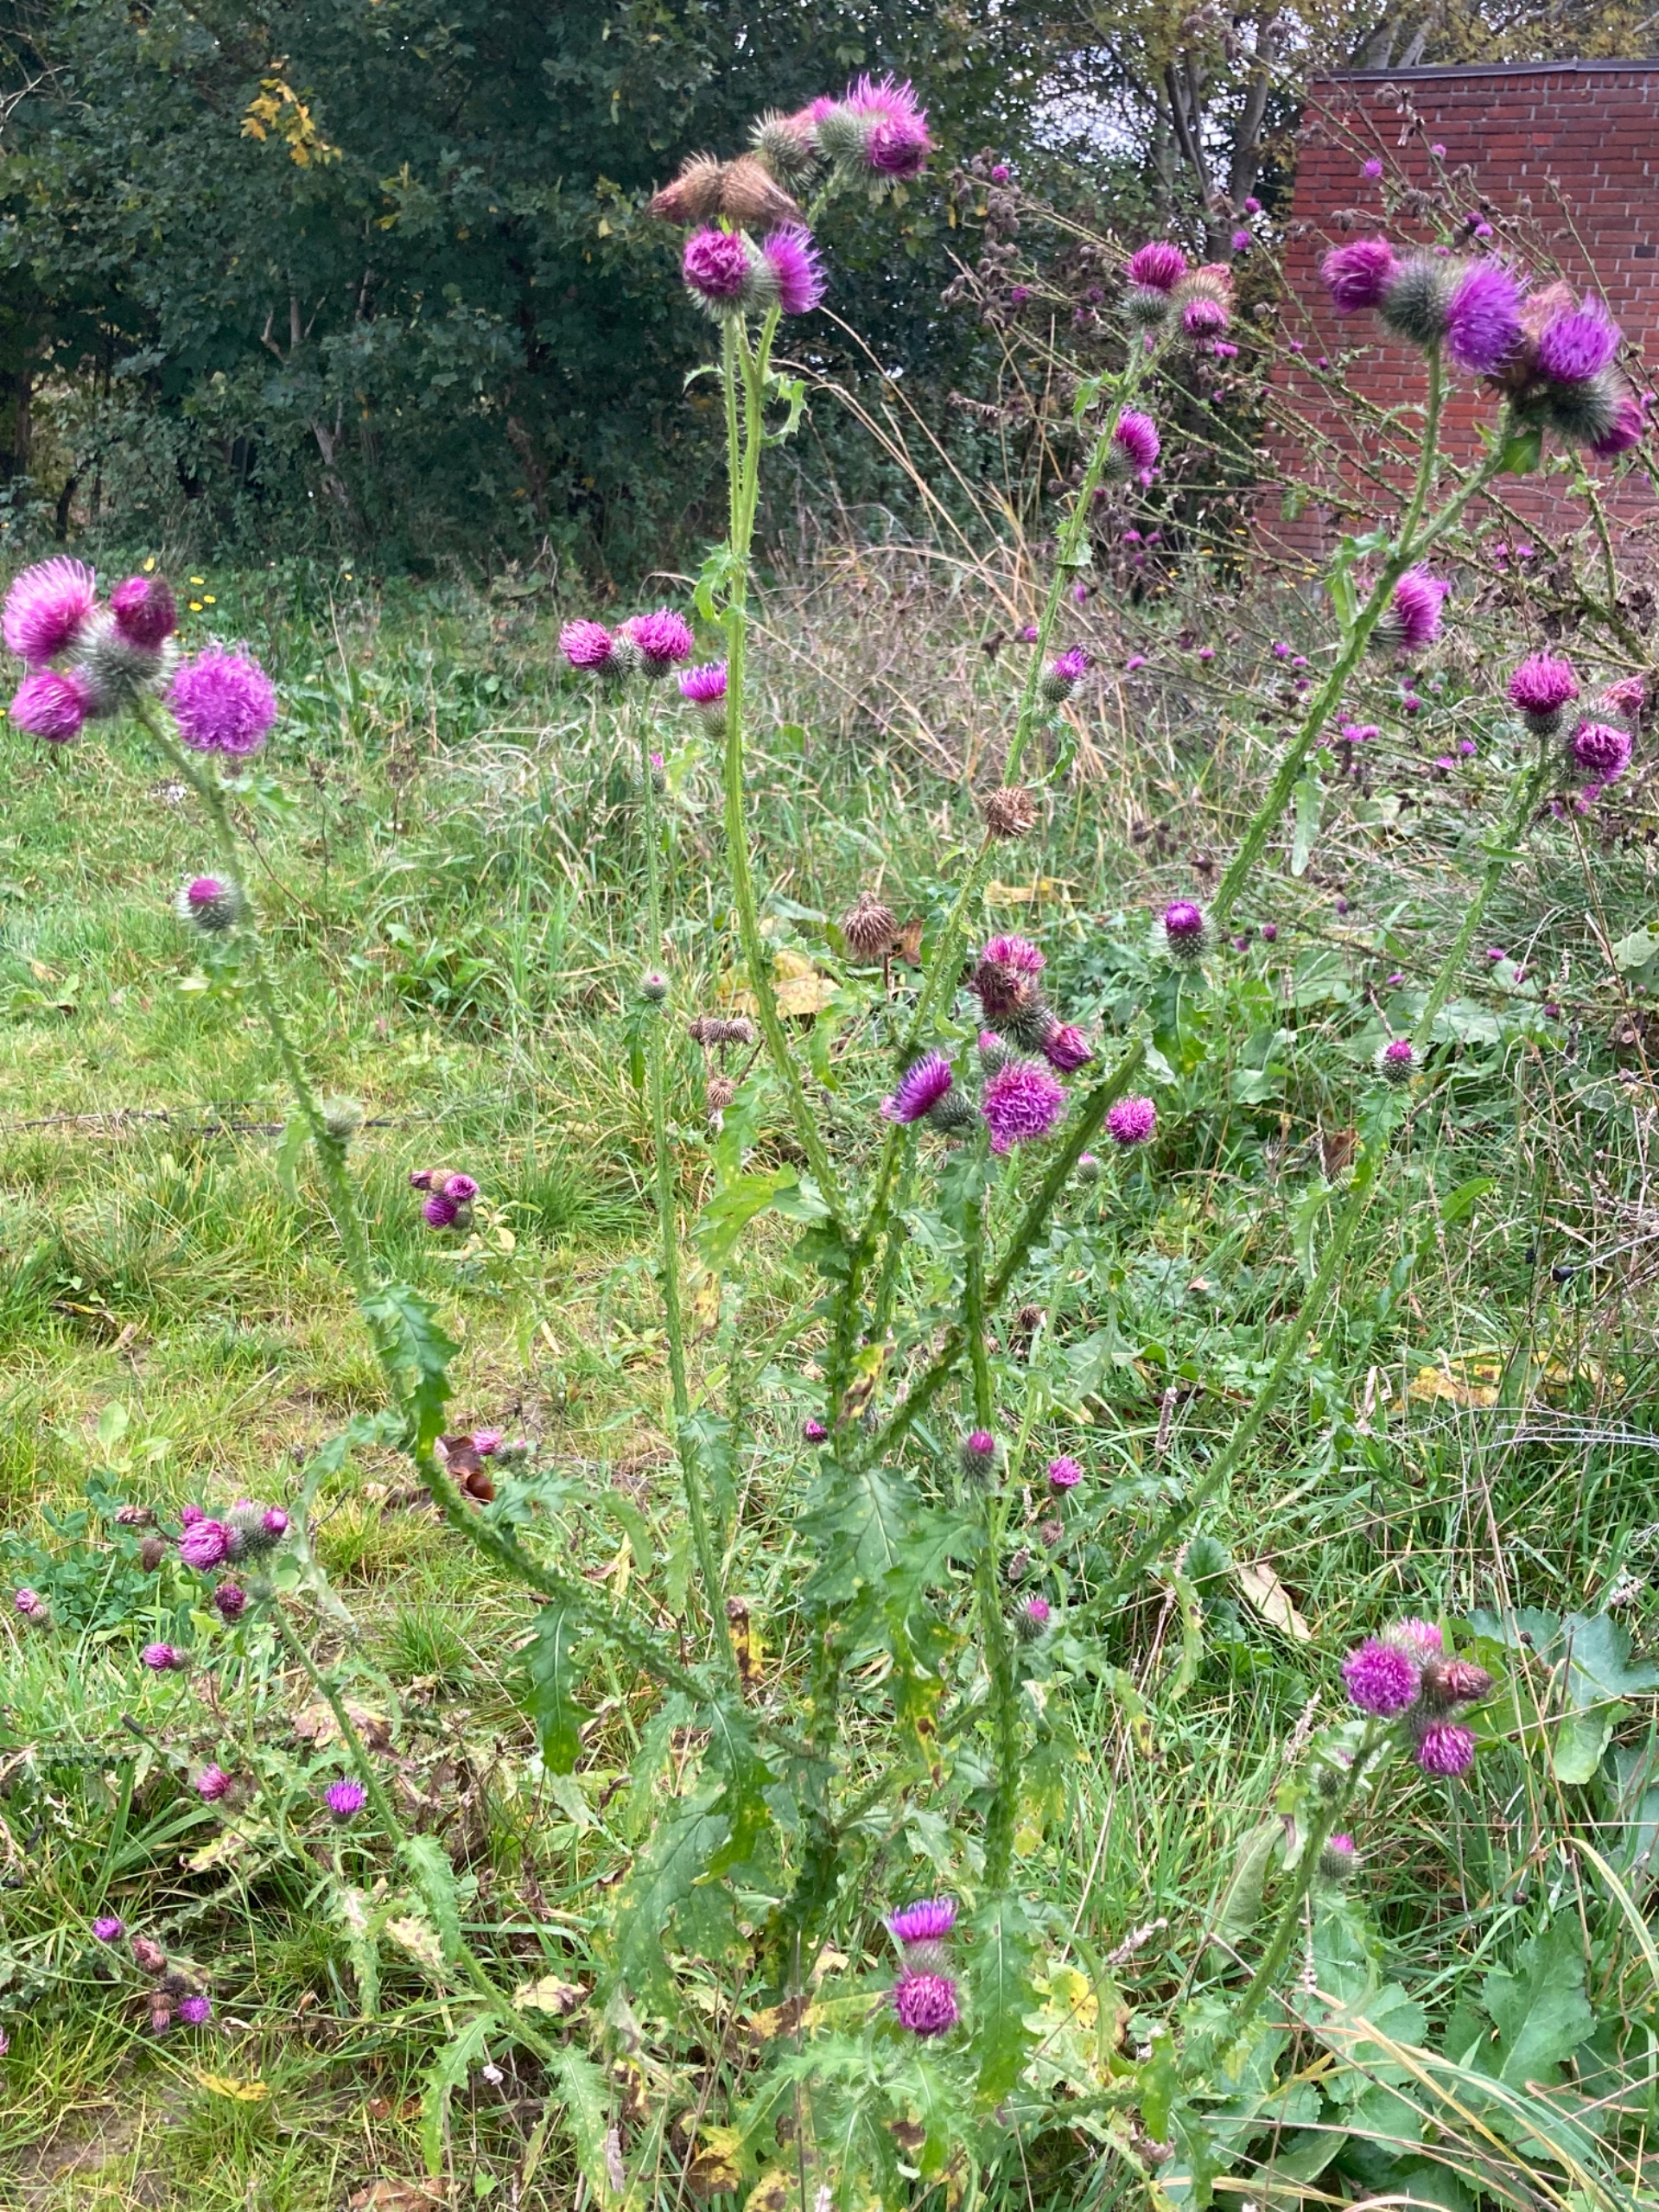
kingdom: Plantae
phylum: Tracheophyta
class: Magnoliopsida
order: Asterales
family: Asteraceae
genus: Carduus
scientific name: Carduus crispus
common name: Kruset tidsel
